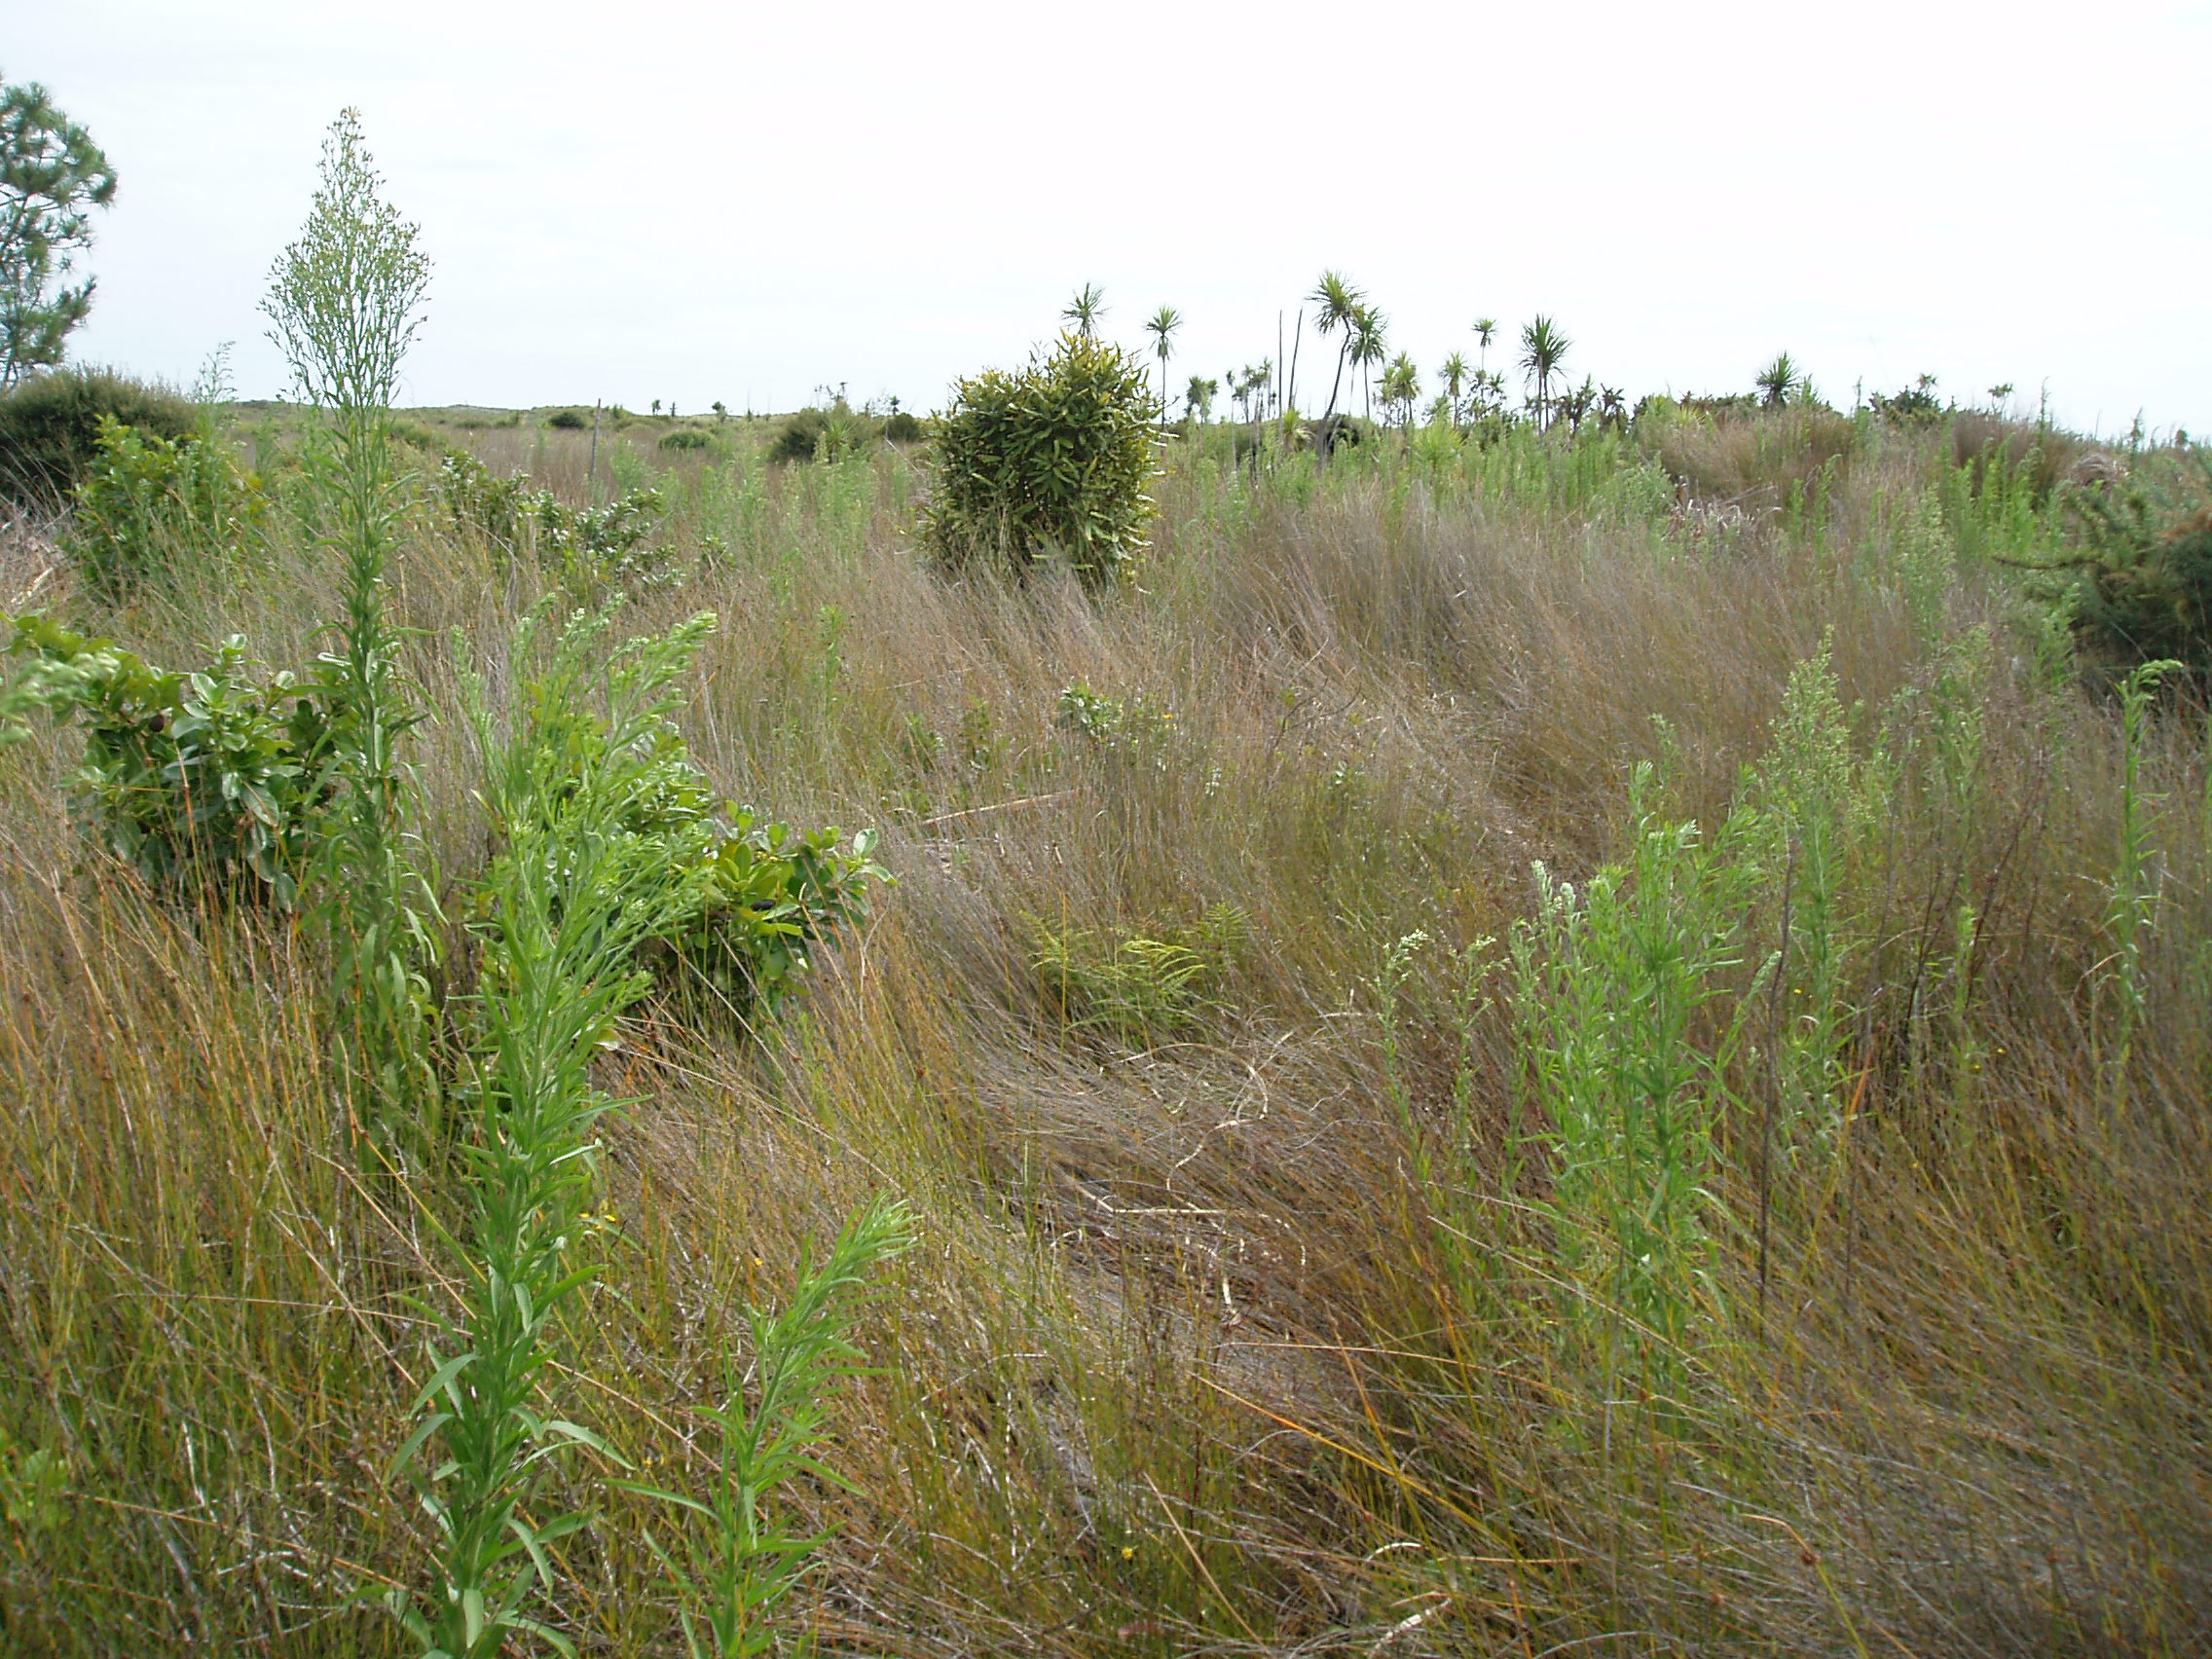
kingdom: Plantae
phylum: Tracheophyta
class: Magnoliopsida
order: Proteales
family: Proteaceae
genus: Knightia
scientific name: Knightia excelsa
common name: New zealand-honeysuckle
